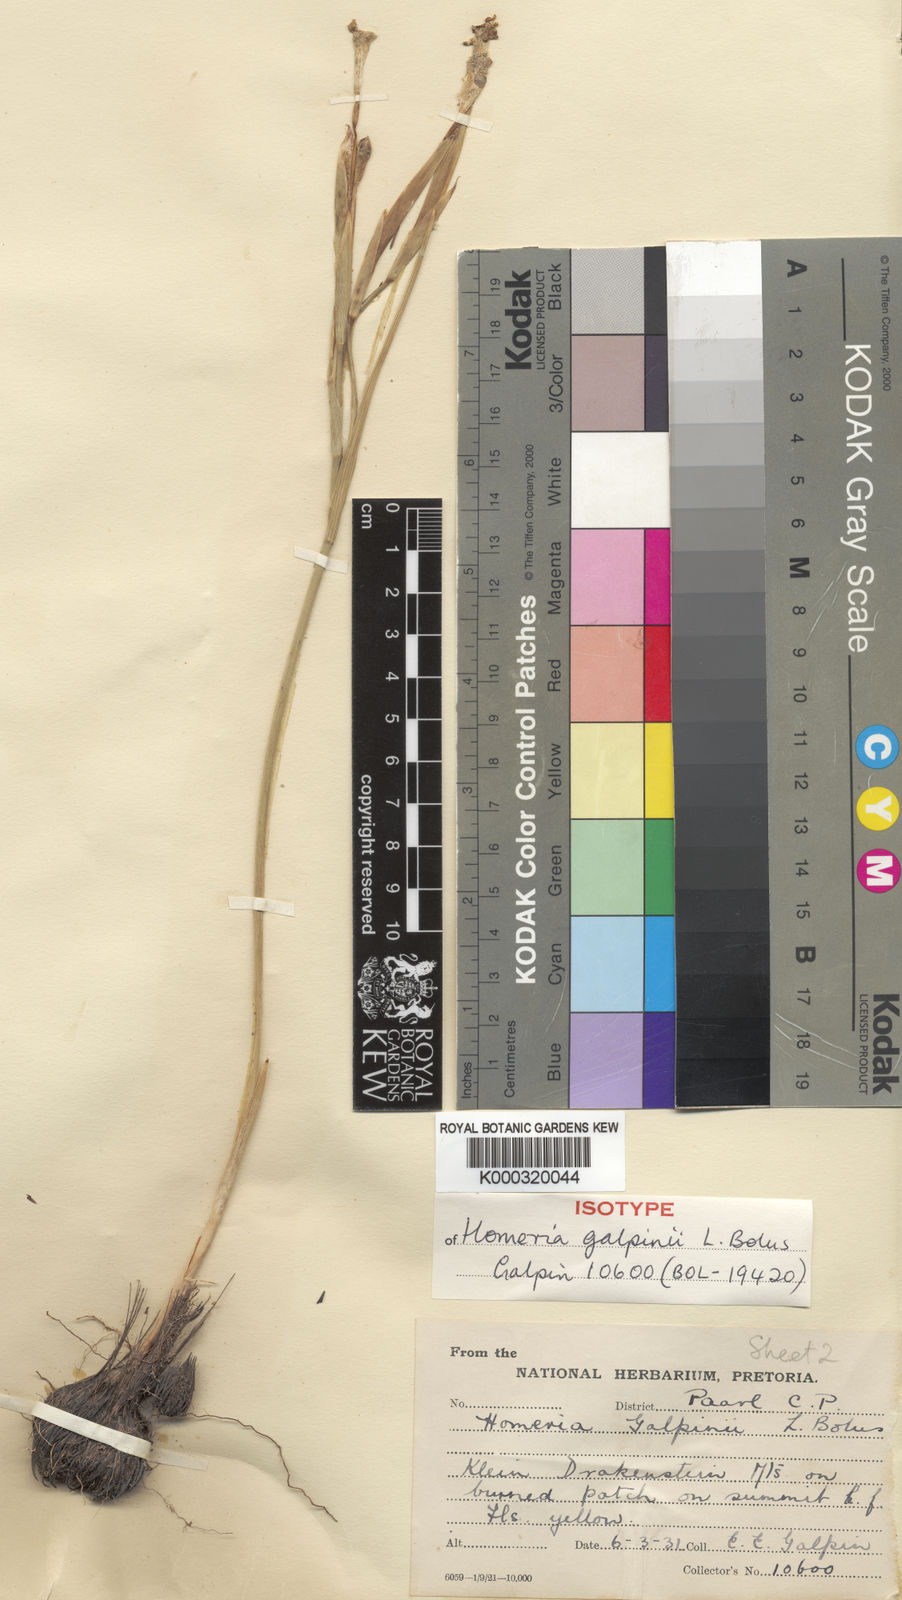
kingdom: Plantae
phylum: Tracheophyta
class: Liliopsida
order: Asparagales
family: Iridaceae
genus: Moraea
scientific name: Moraea pyrophila
